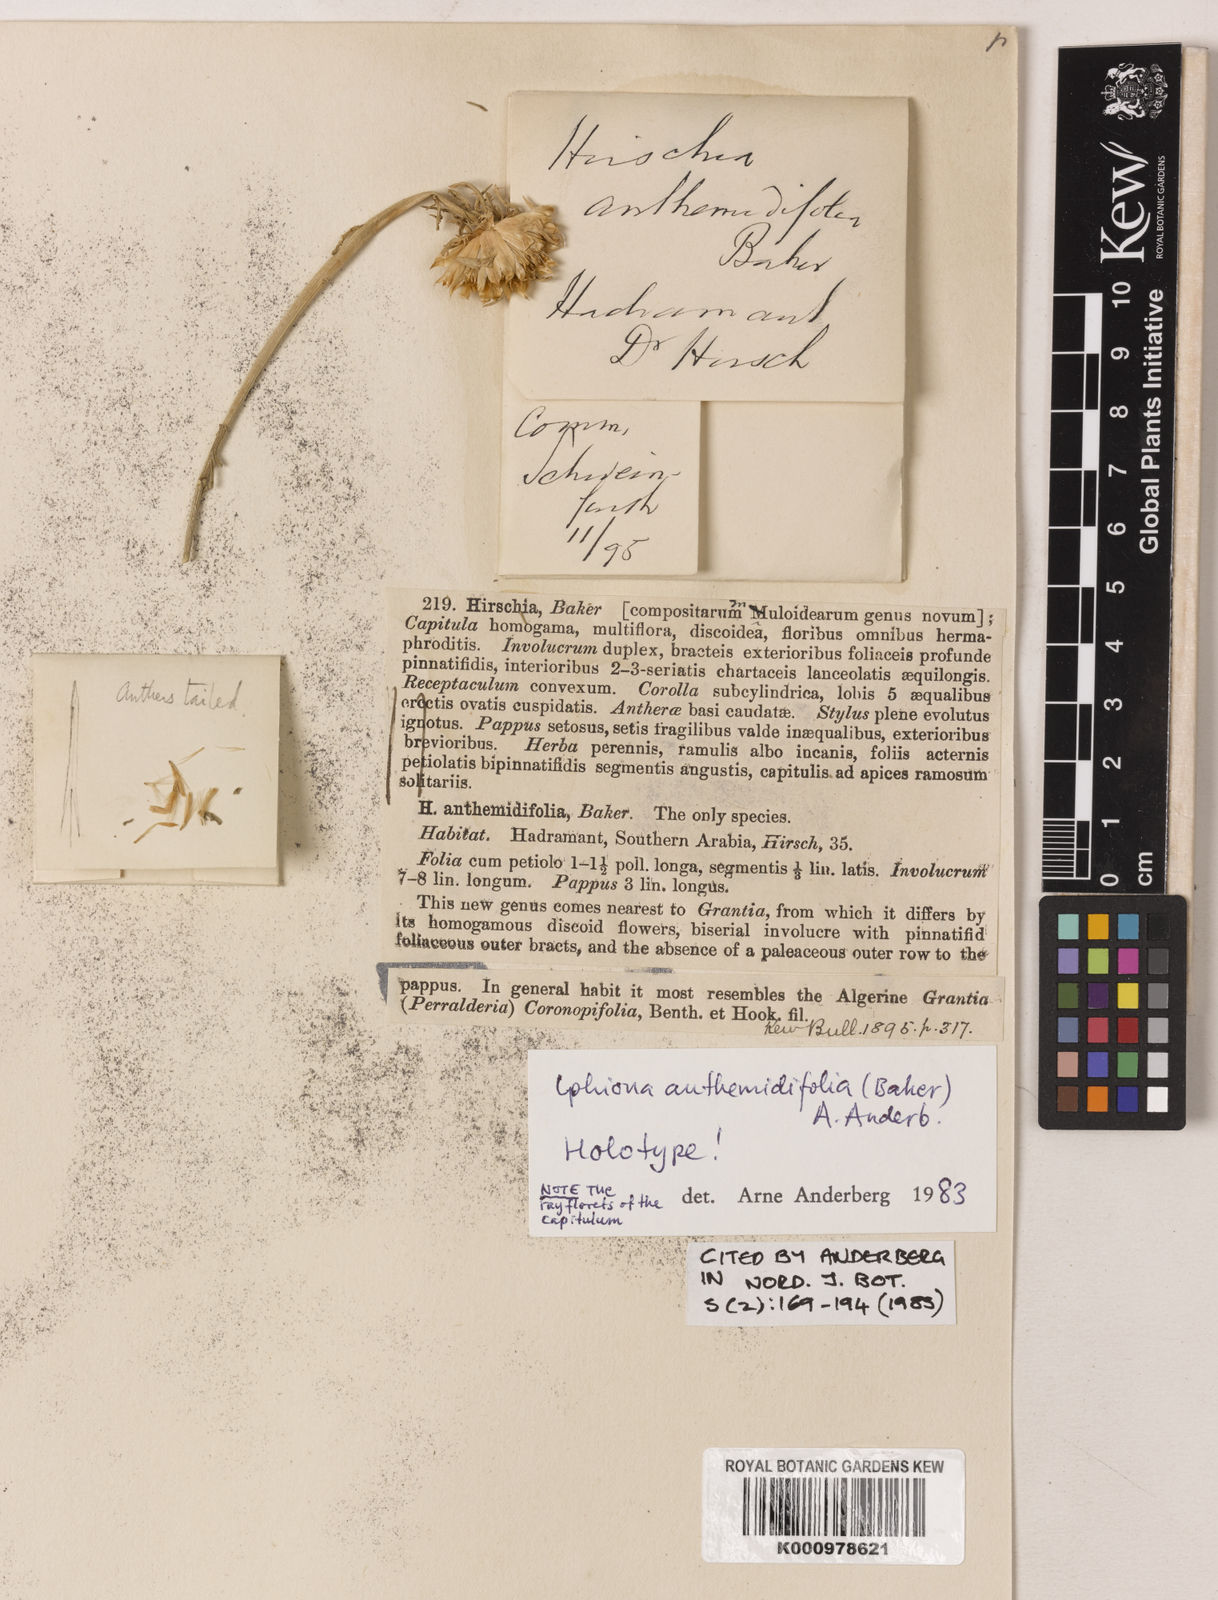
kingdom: Plantae
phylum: Tracheophyta
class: Magnoliopsida
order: Asterales
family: Asteraceae
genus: Iphiona
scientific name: Iphiona anthemidifolia
